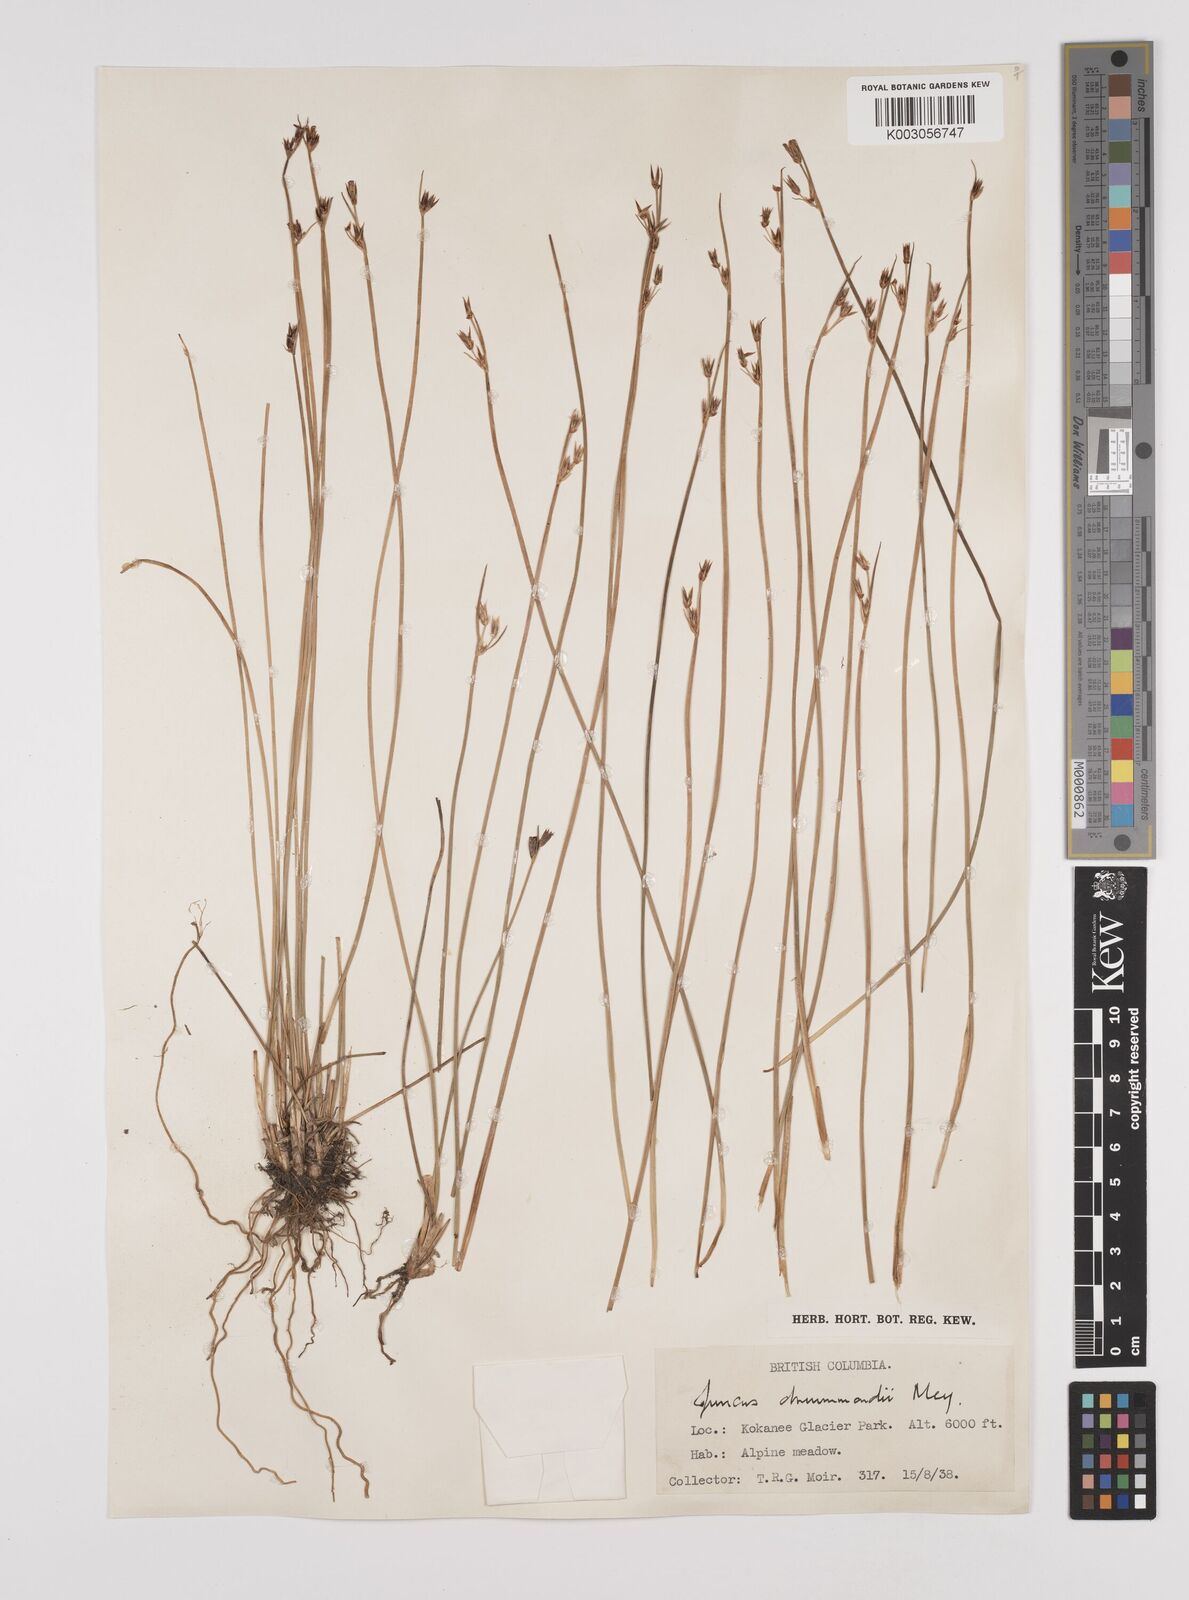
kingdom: Plantae
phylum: Tracheophyta
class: Liliopsida
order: Poales
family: Juncaceae
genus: Juncus
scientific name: Juncus drummondii
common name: Drummond's rush
